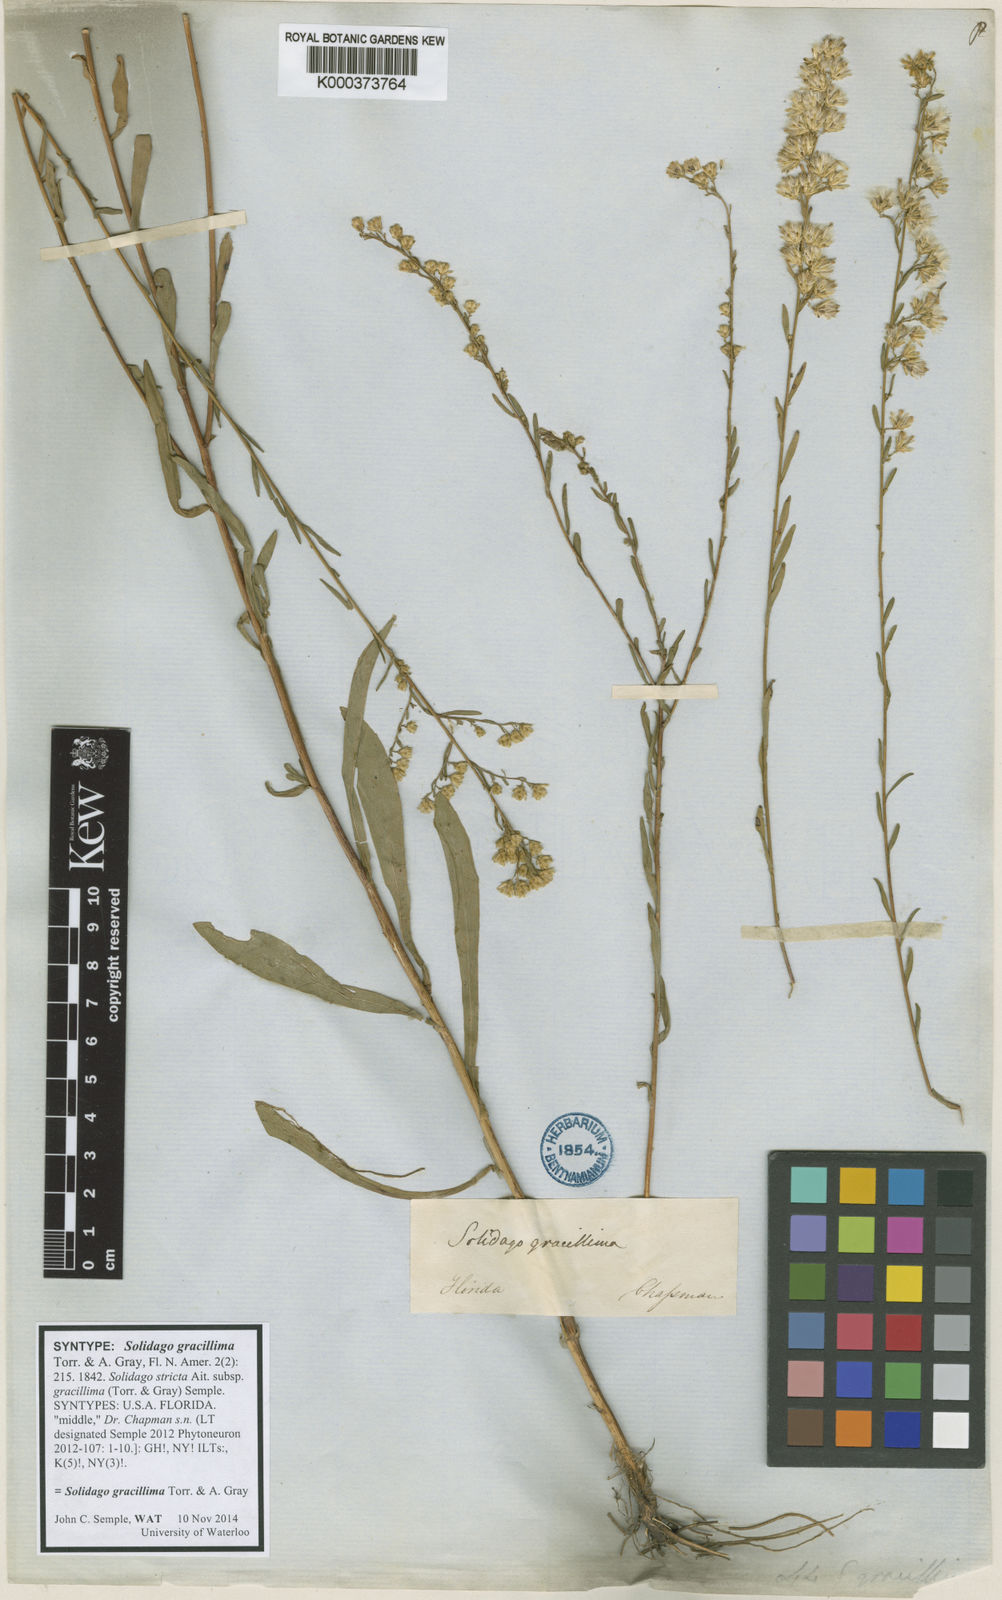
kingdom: Plantae
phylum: Tracheophyta
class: Magnoliopsida
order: Asterales
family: Asteraceae
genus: Solidago
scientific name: Solidago gracillima
